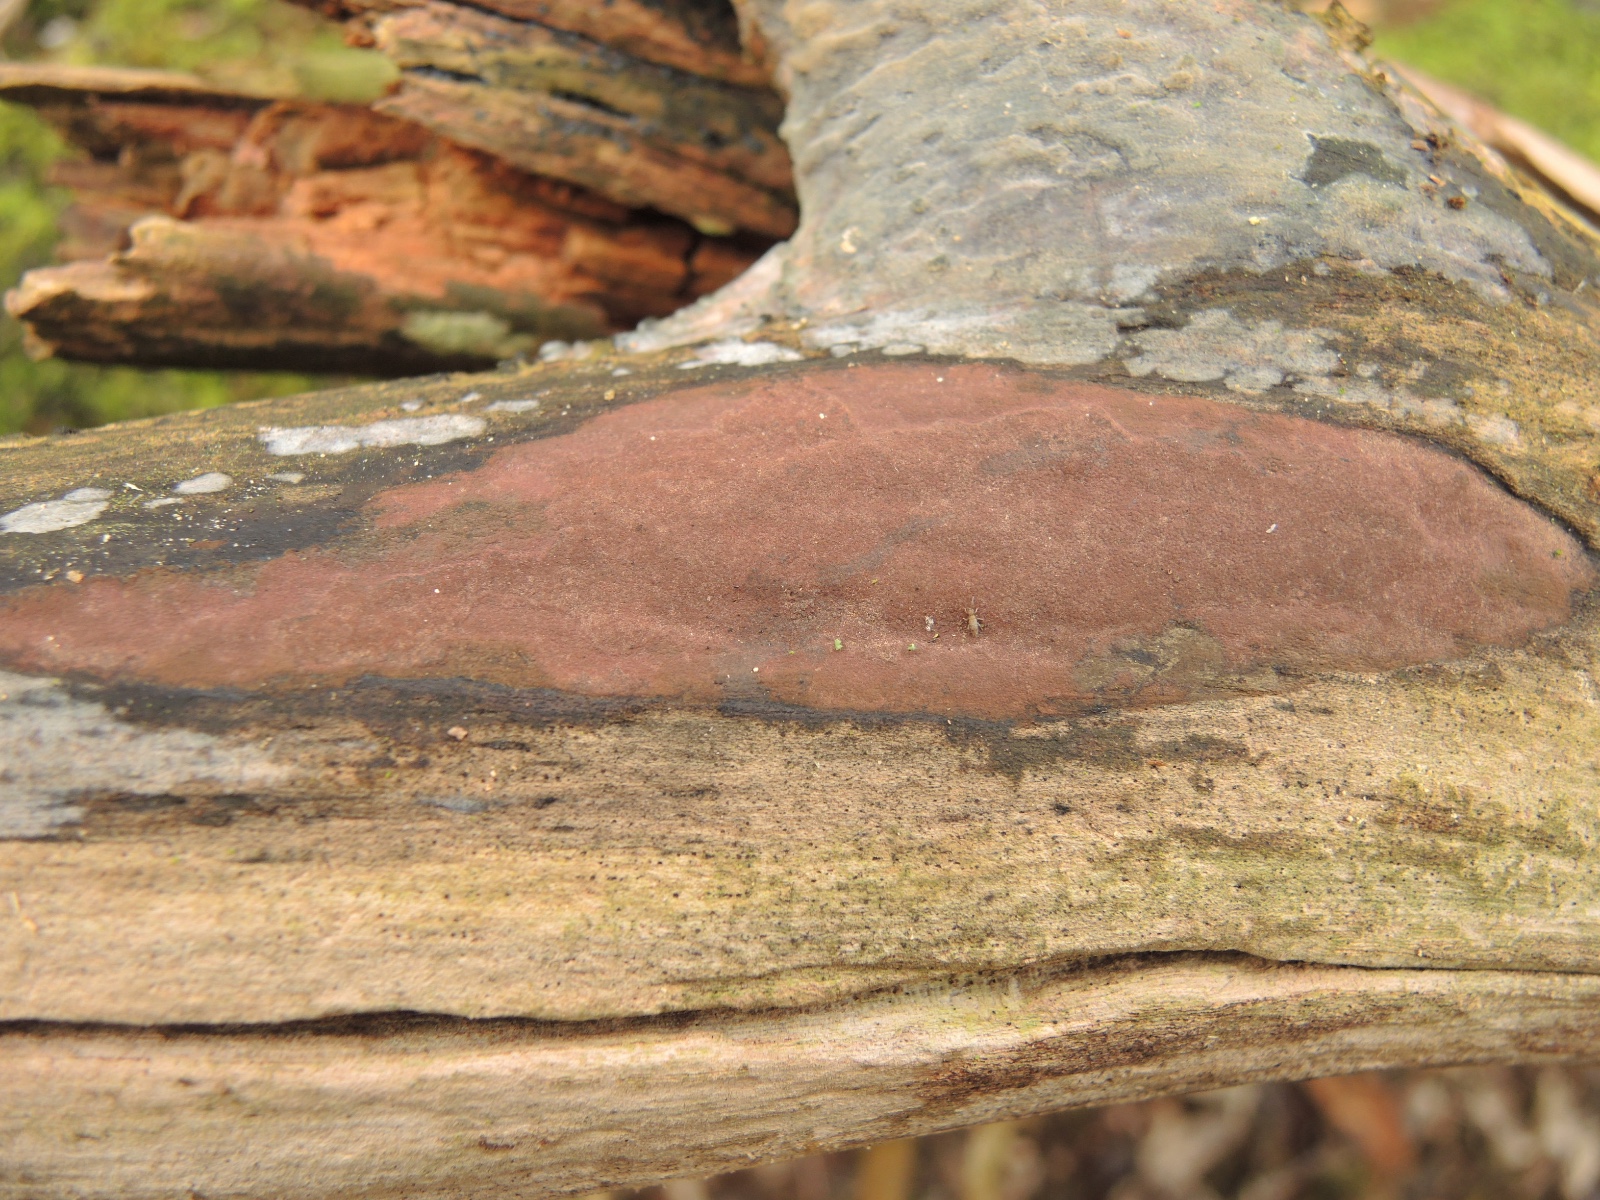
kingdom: Fungi
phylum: Ascomycota
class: Sordariomycetes
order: Xylariales
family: Hypoxylaceae
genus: Hypoxylon
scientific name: Hypoxylon macrocarpum
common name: skorpe-kulbær
